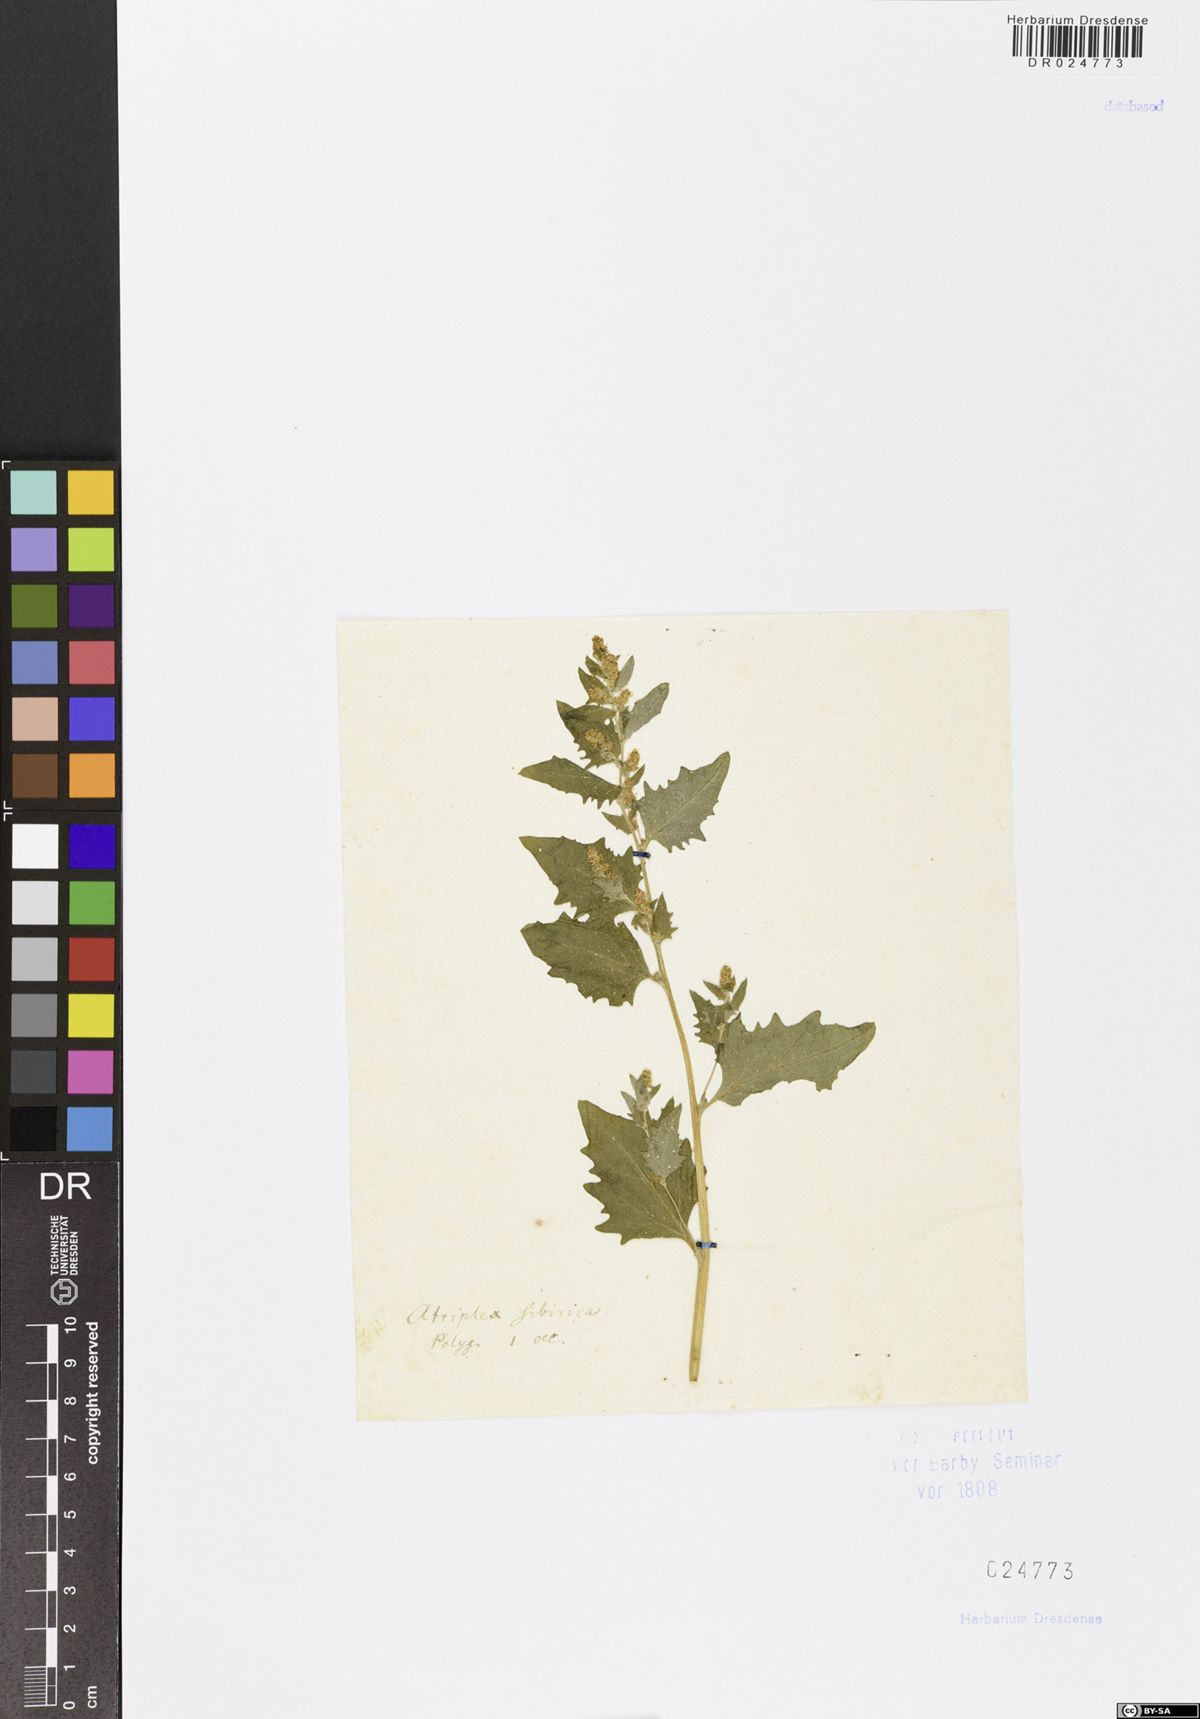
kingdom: Plantae
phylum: Tracheophyta
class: Magnoliopsida
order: Caryophyllales
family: Amaranthaceae
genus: Atriplex
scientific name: Atriplex sibirica
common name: Siberian saltbush
